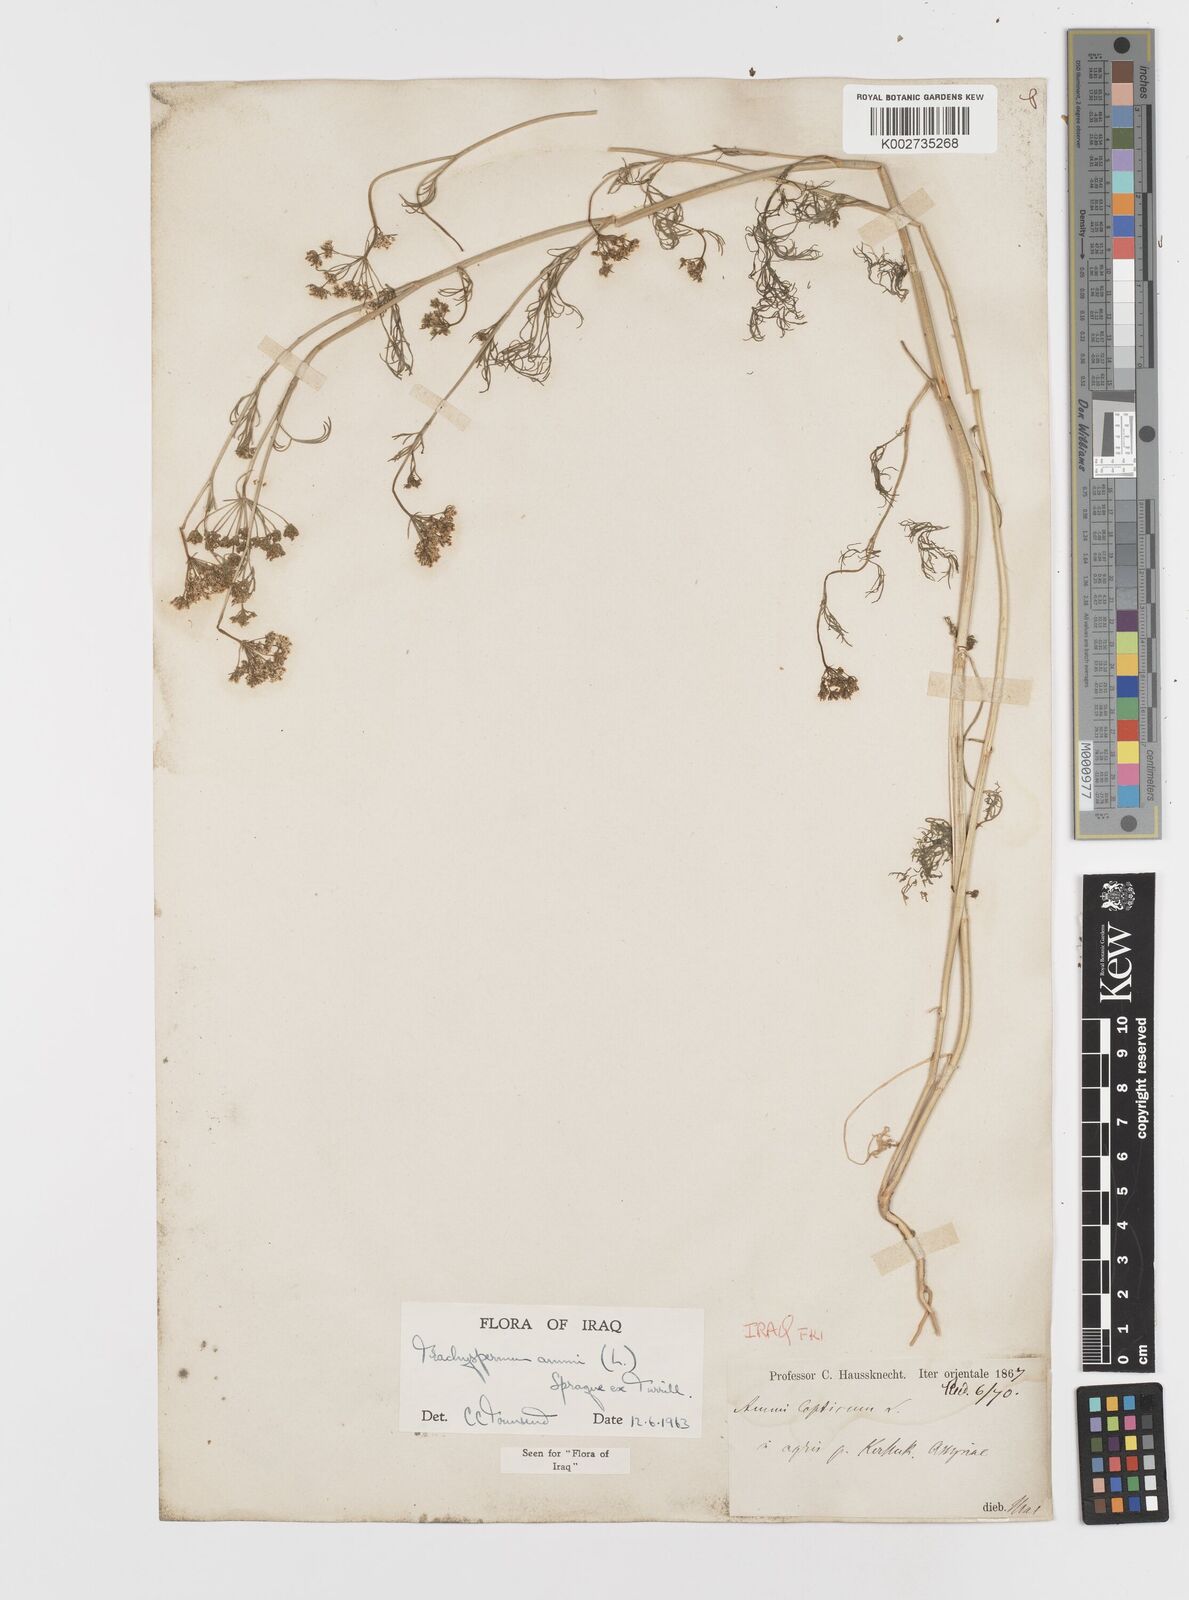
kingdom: Plantae
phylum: Tracheophyta
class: Magnoliopsida
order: Apiales
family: Apiaceae
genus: Trachyspermum
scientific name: Trachyspermum ammi
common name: Ajowan
